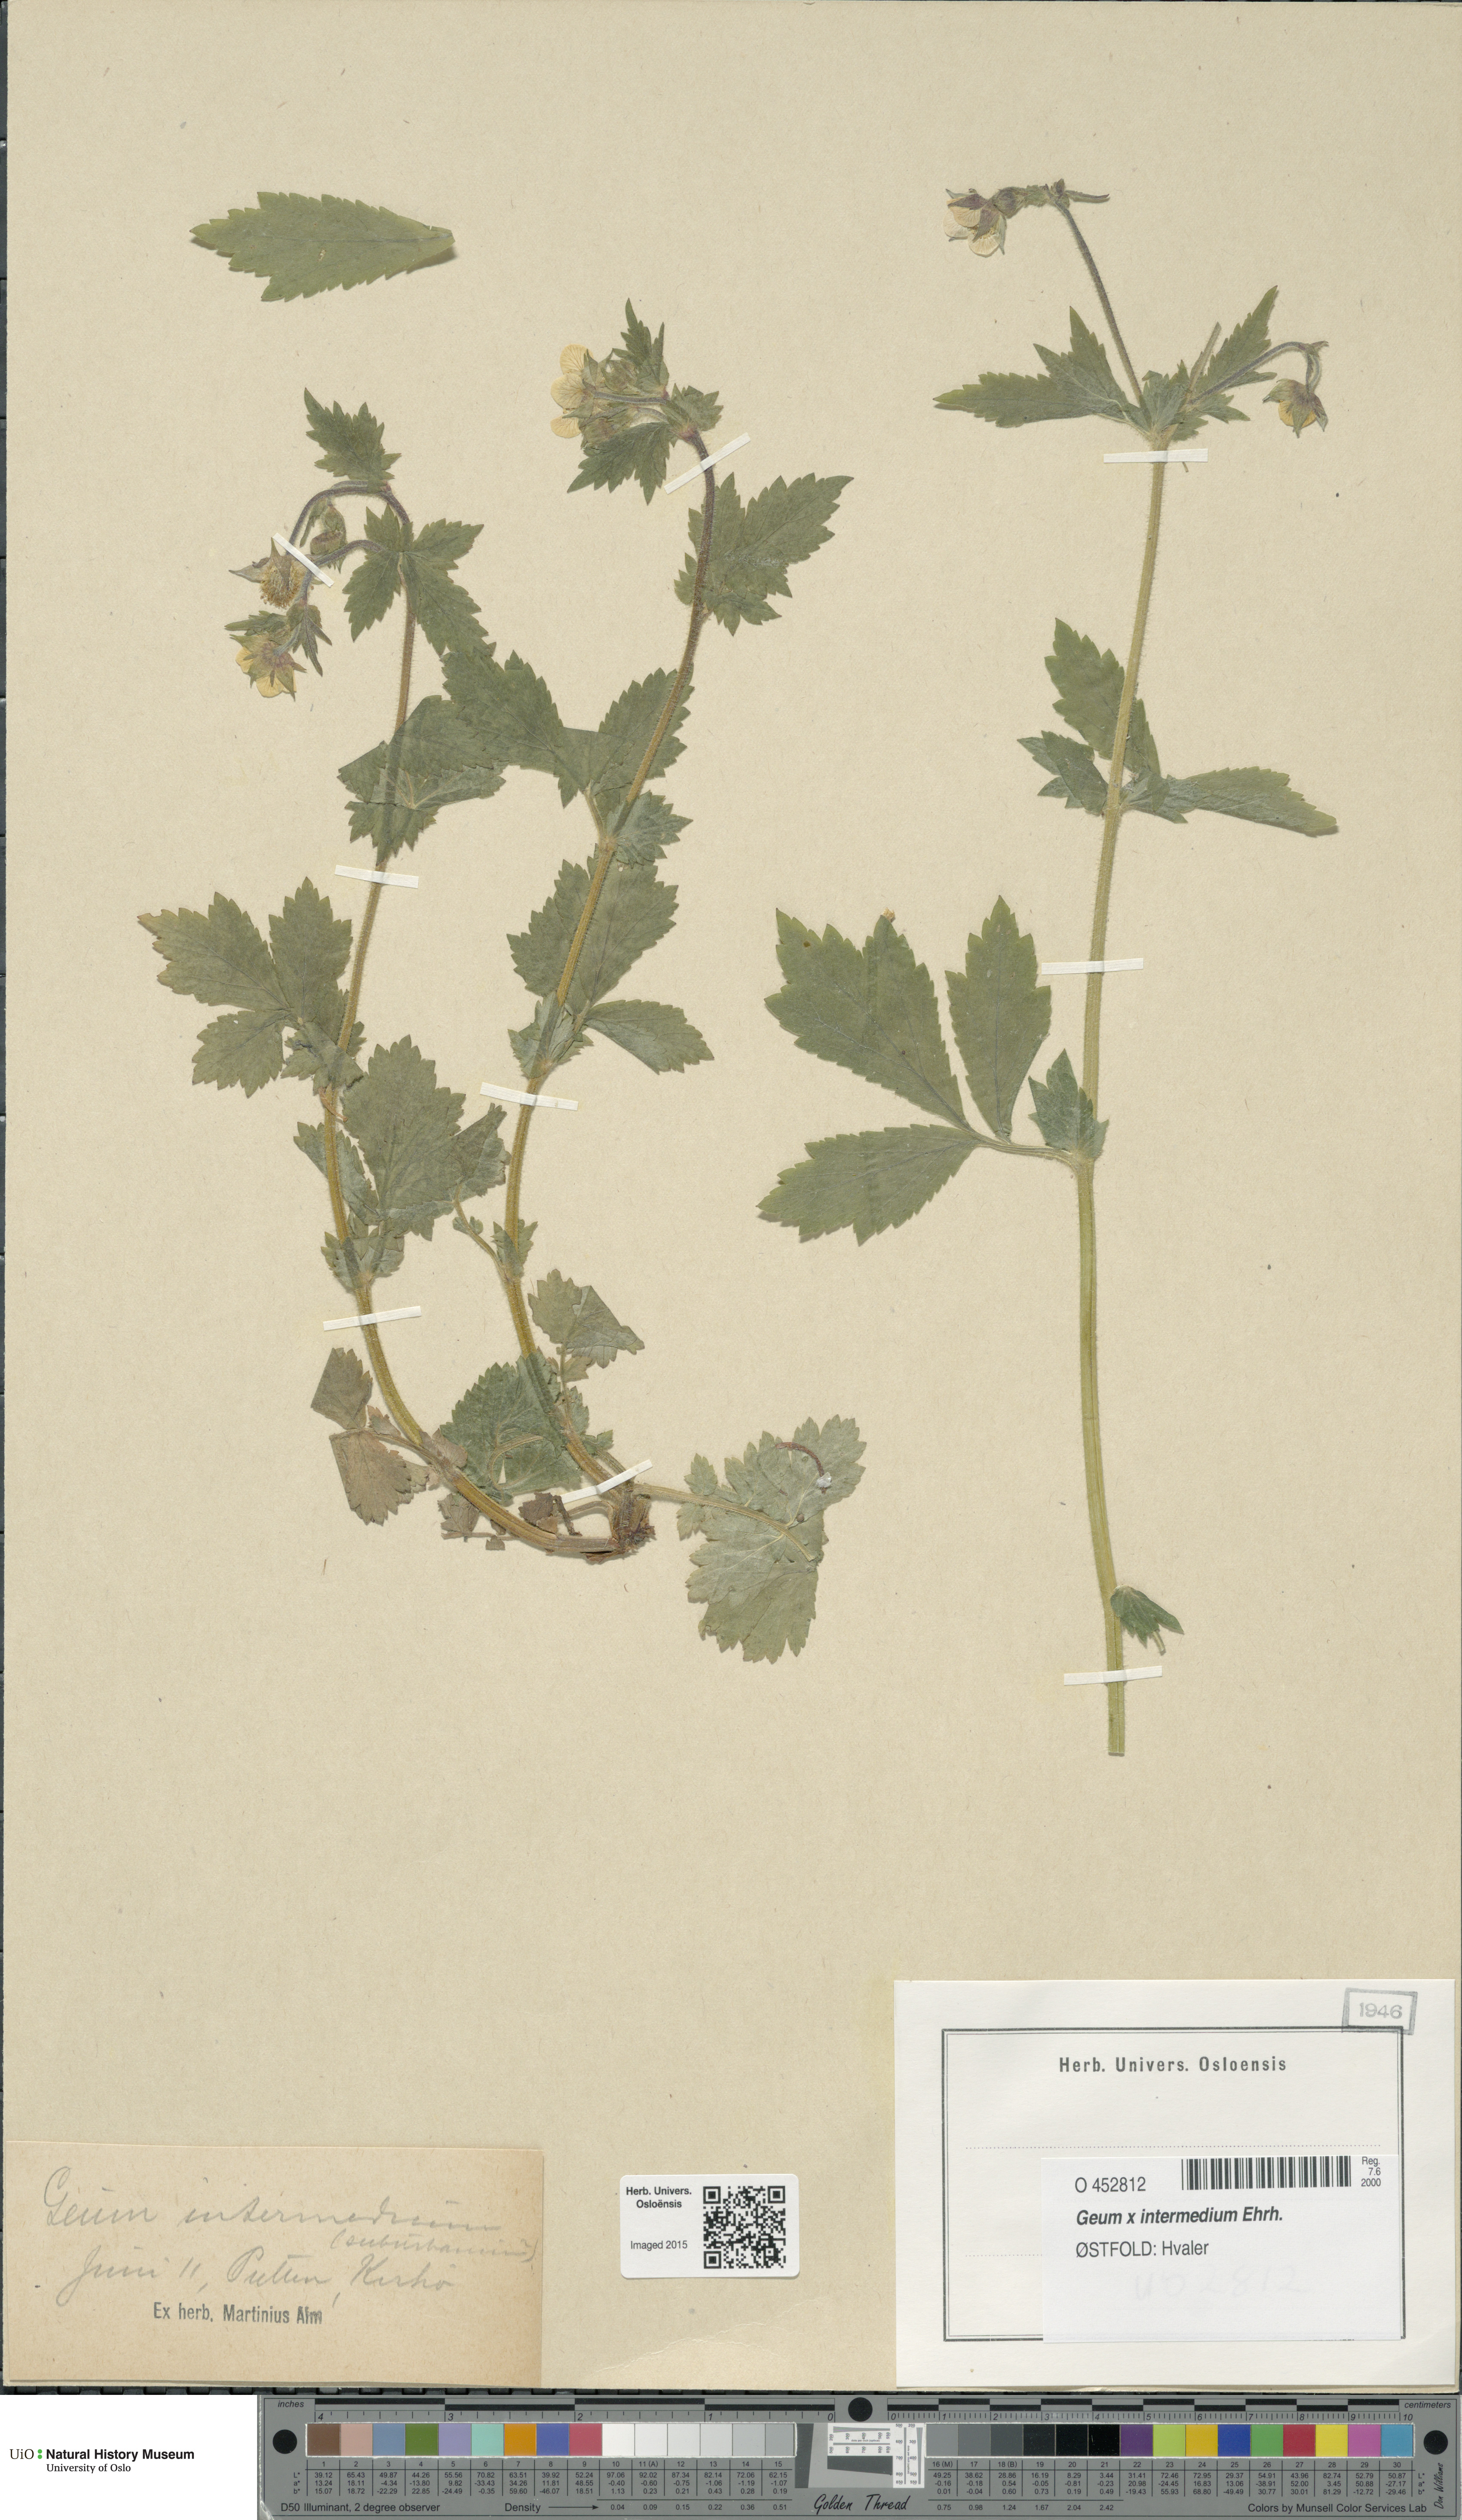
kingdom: Plantae
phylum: Tracheophyta
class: Magnoliopsida
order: Rosales
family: Rosaceae
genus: Geum
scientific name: Geum intermedium
